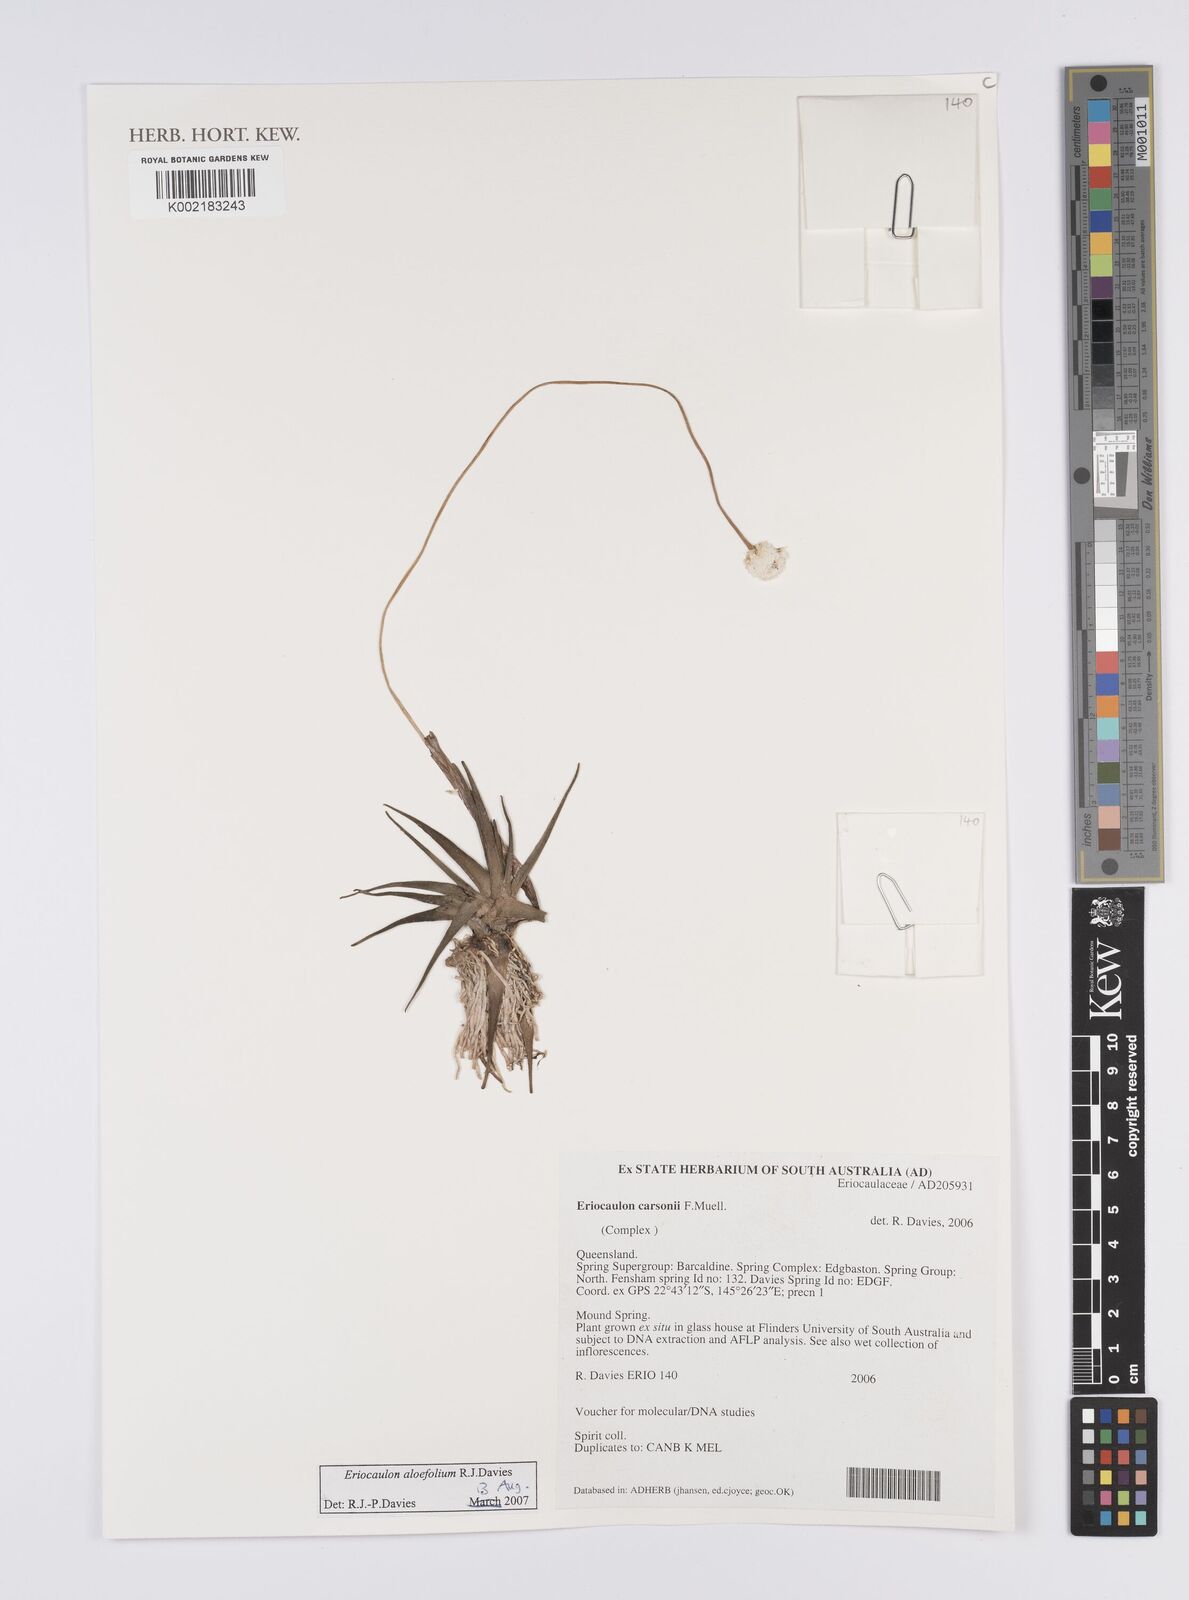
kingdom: Plantae
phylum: Tracheophyta
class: Liliopsida
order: Poales
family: Eriocaulaceae
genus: Eriocaulon
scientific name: Eriocaulon aloifolium
